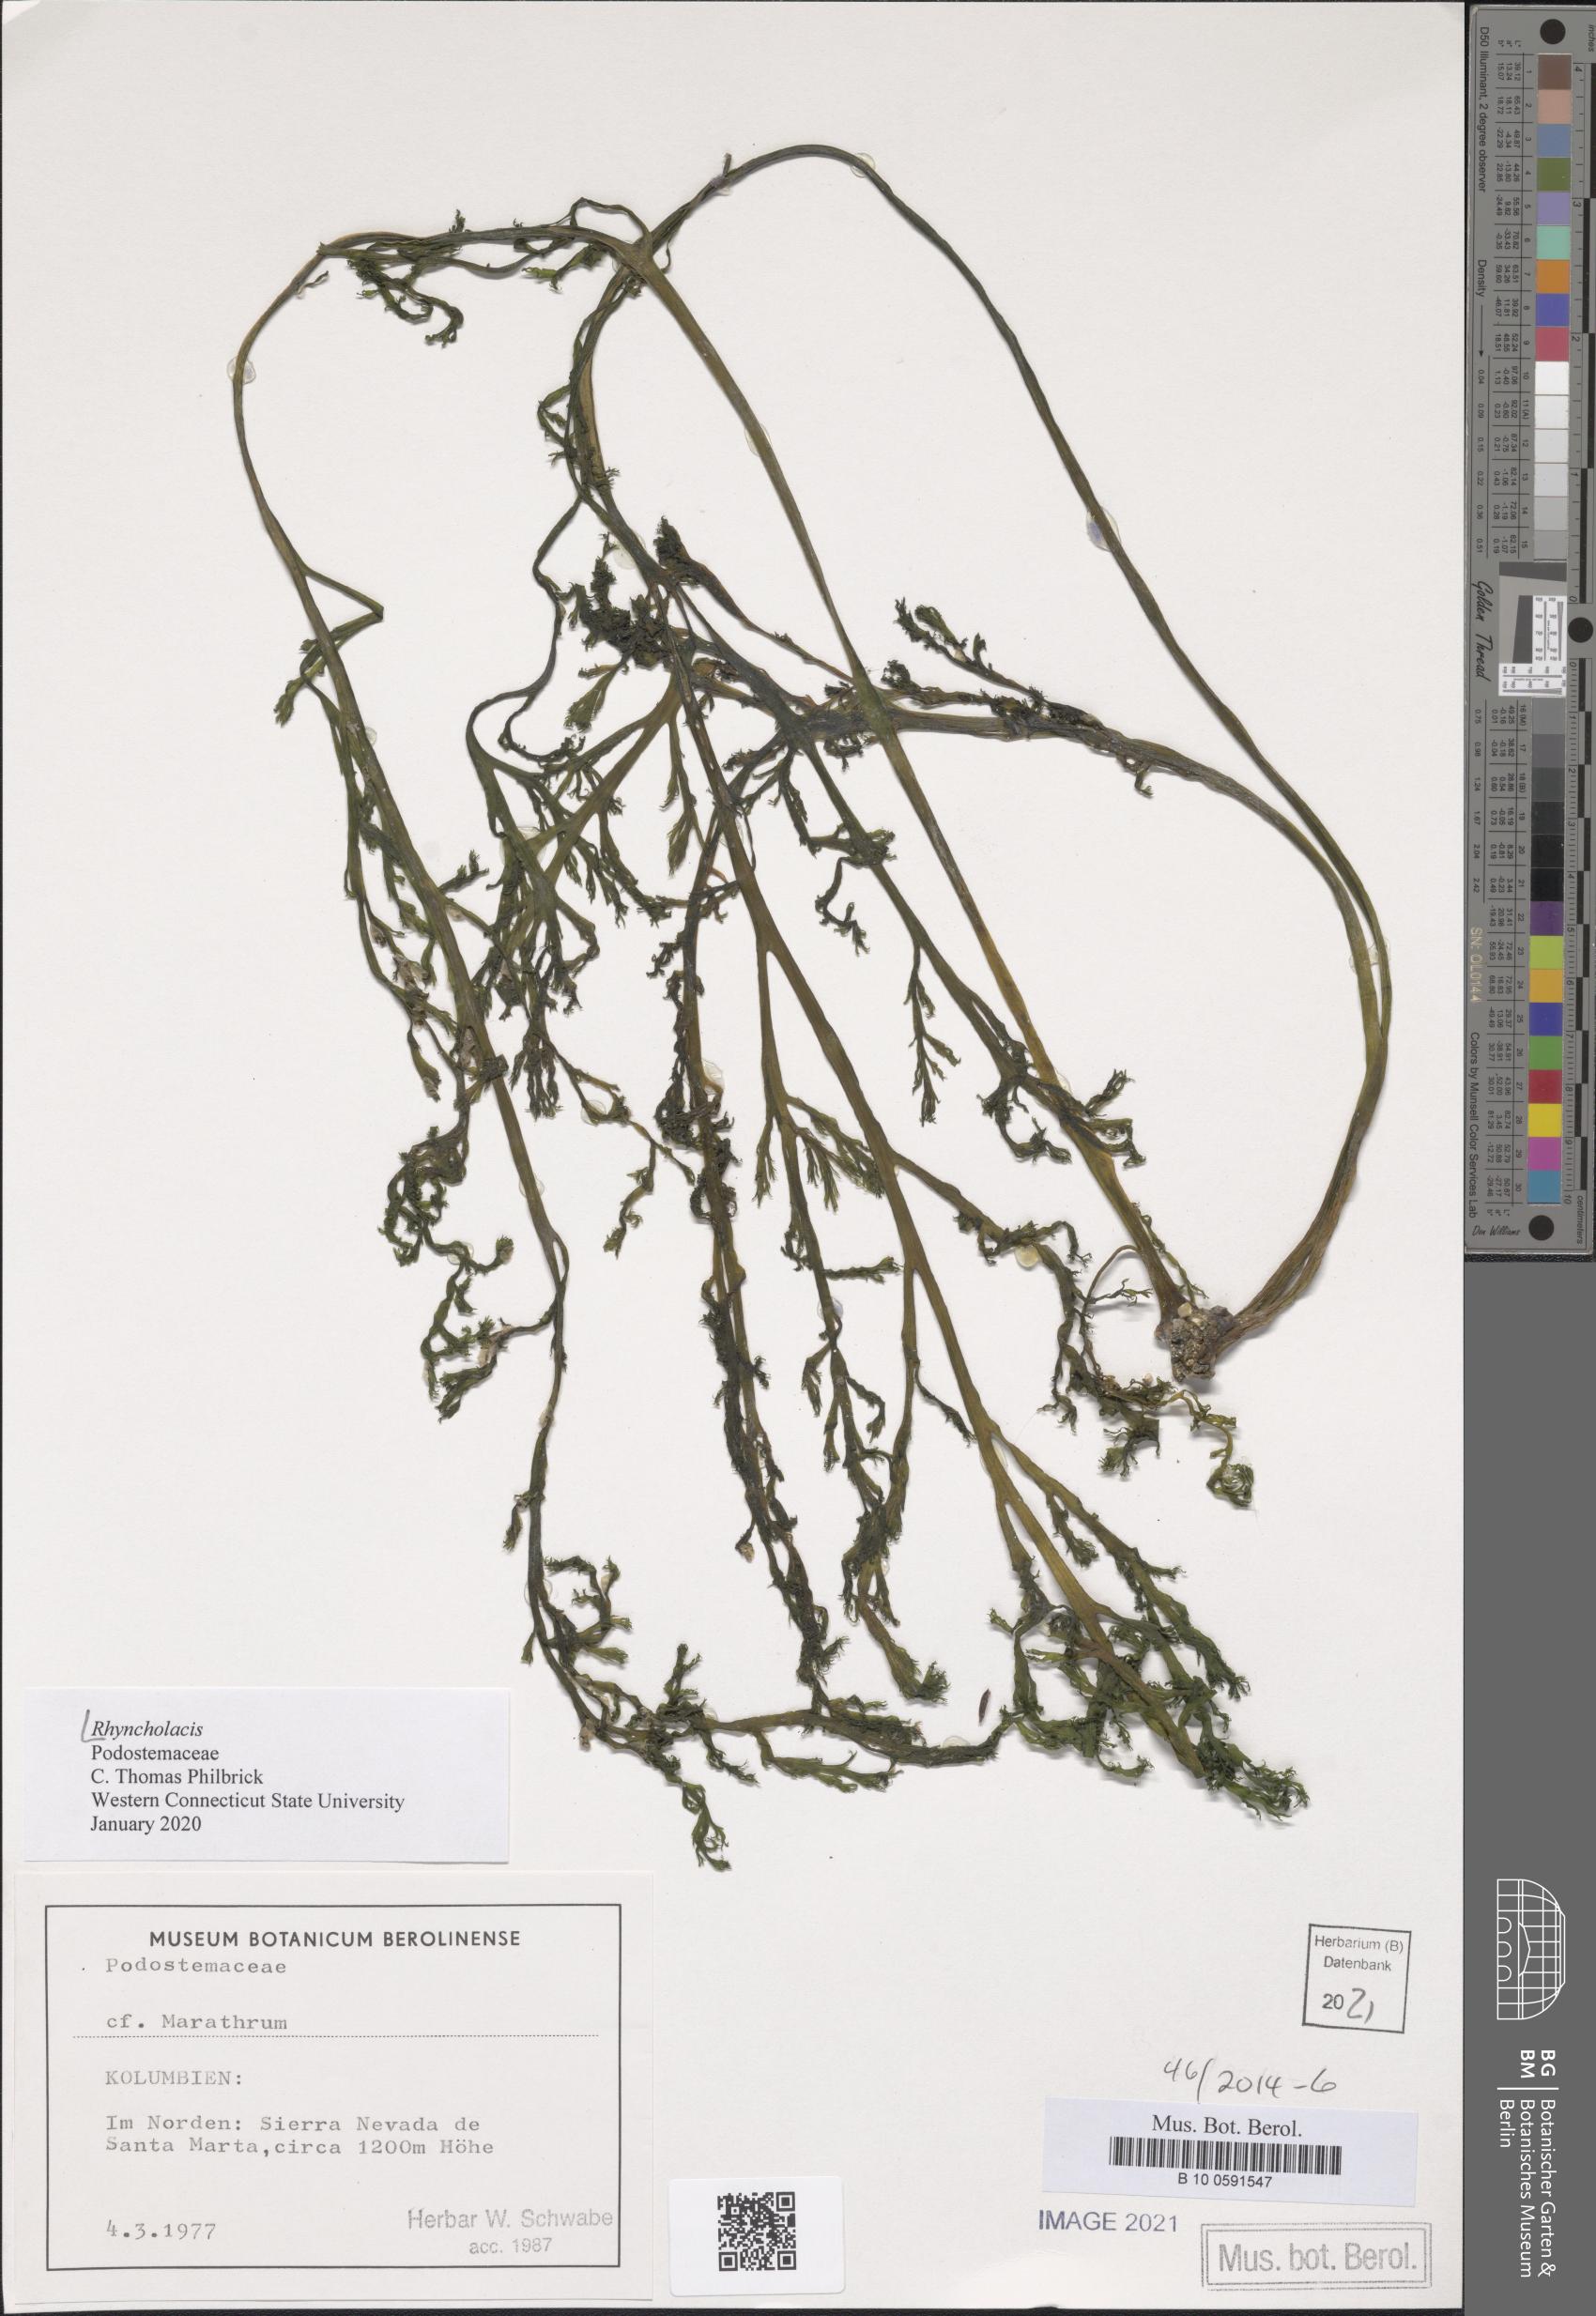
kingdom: Plantae
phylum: Tracheophyta
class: Magnoliopsida
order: Malpighiales
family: Podostemaceae
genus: Rhyncholacis
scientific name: Rhyncholacis
